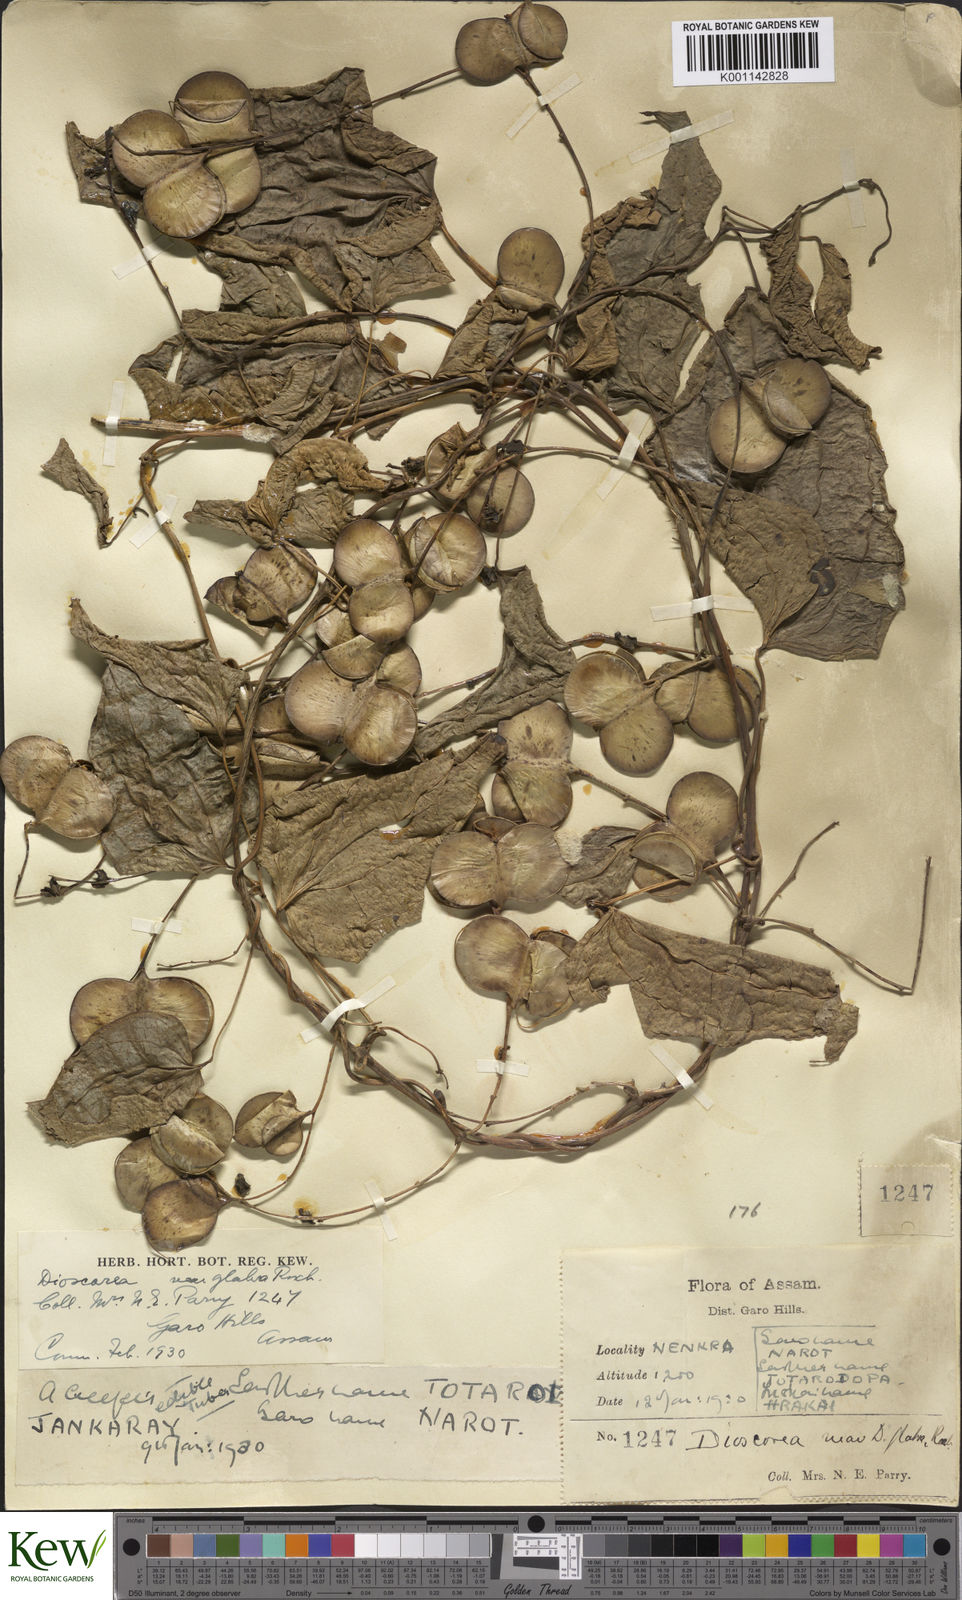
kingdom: Plantae
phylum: Tracheophyta
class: Liliopsida
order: Dioscoreales
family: Dioscoreaceae
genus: Dioscorea
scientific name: Dioscorea glabra
